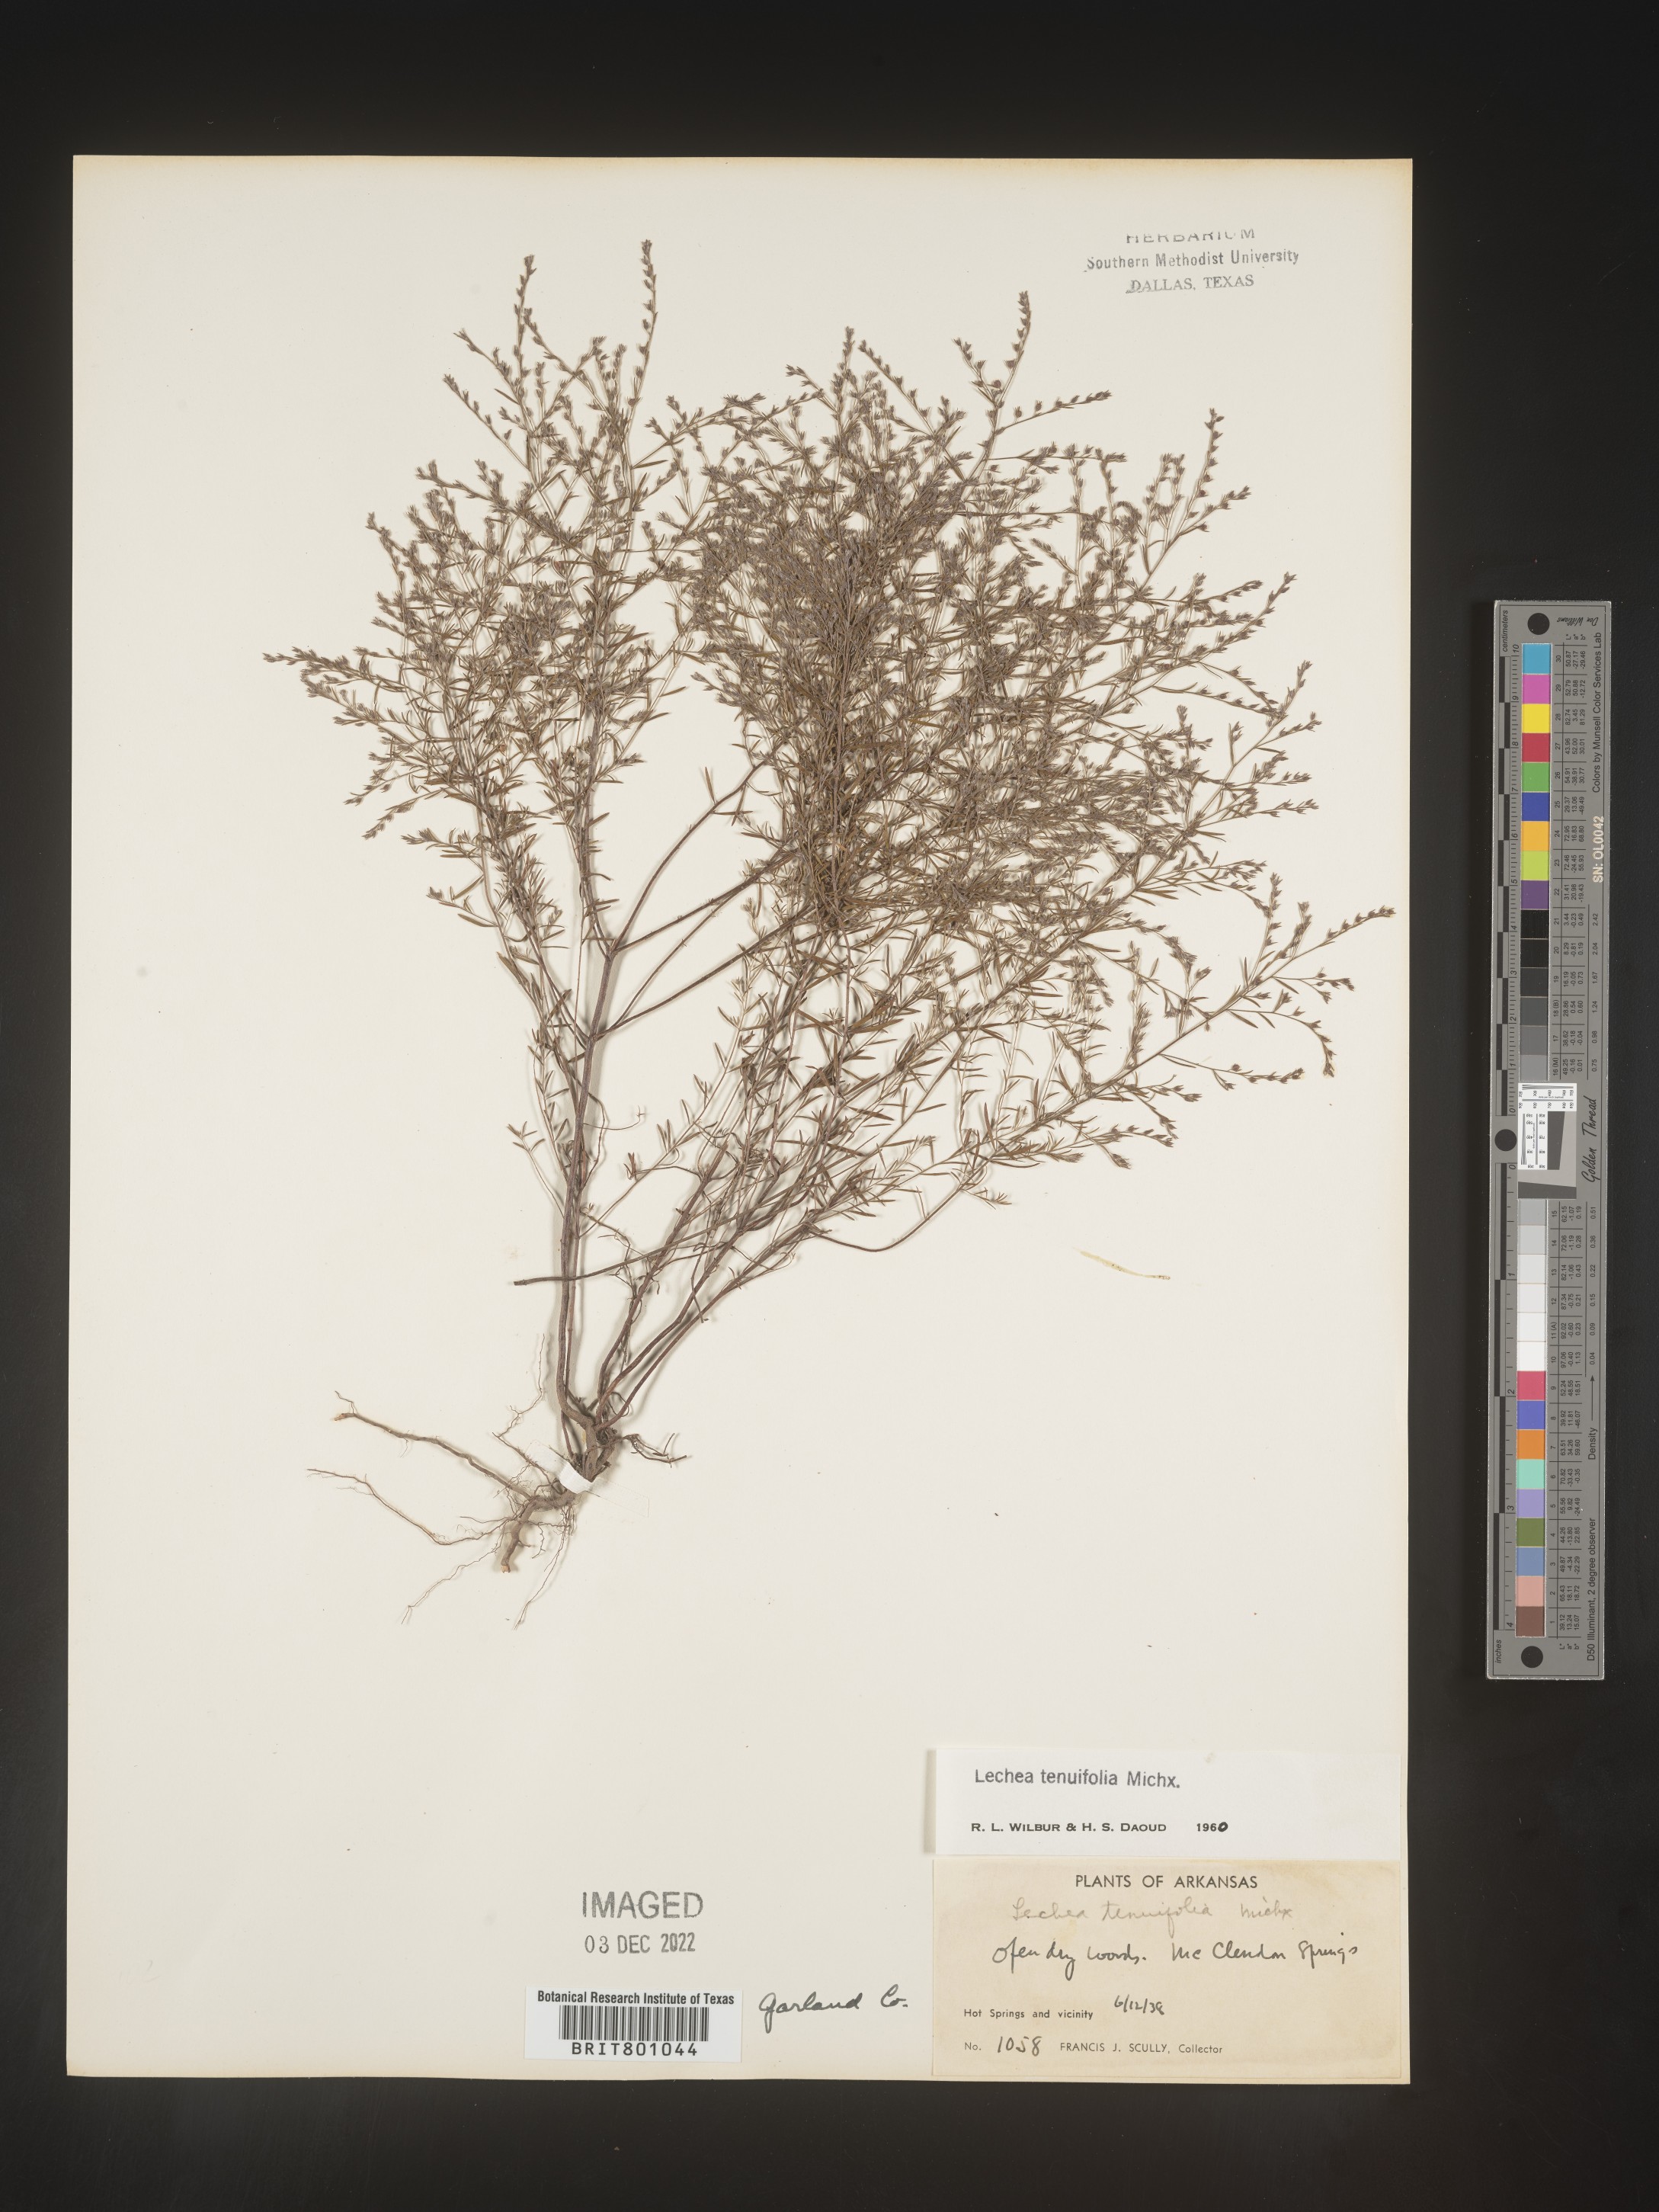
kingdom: Plantae
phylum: Tracheophyta
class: Magnoliopsida
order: Malvales
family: Cistaceae
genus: Lechea
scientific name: Lechea tenuifolia
